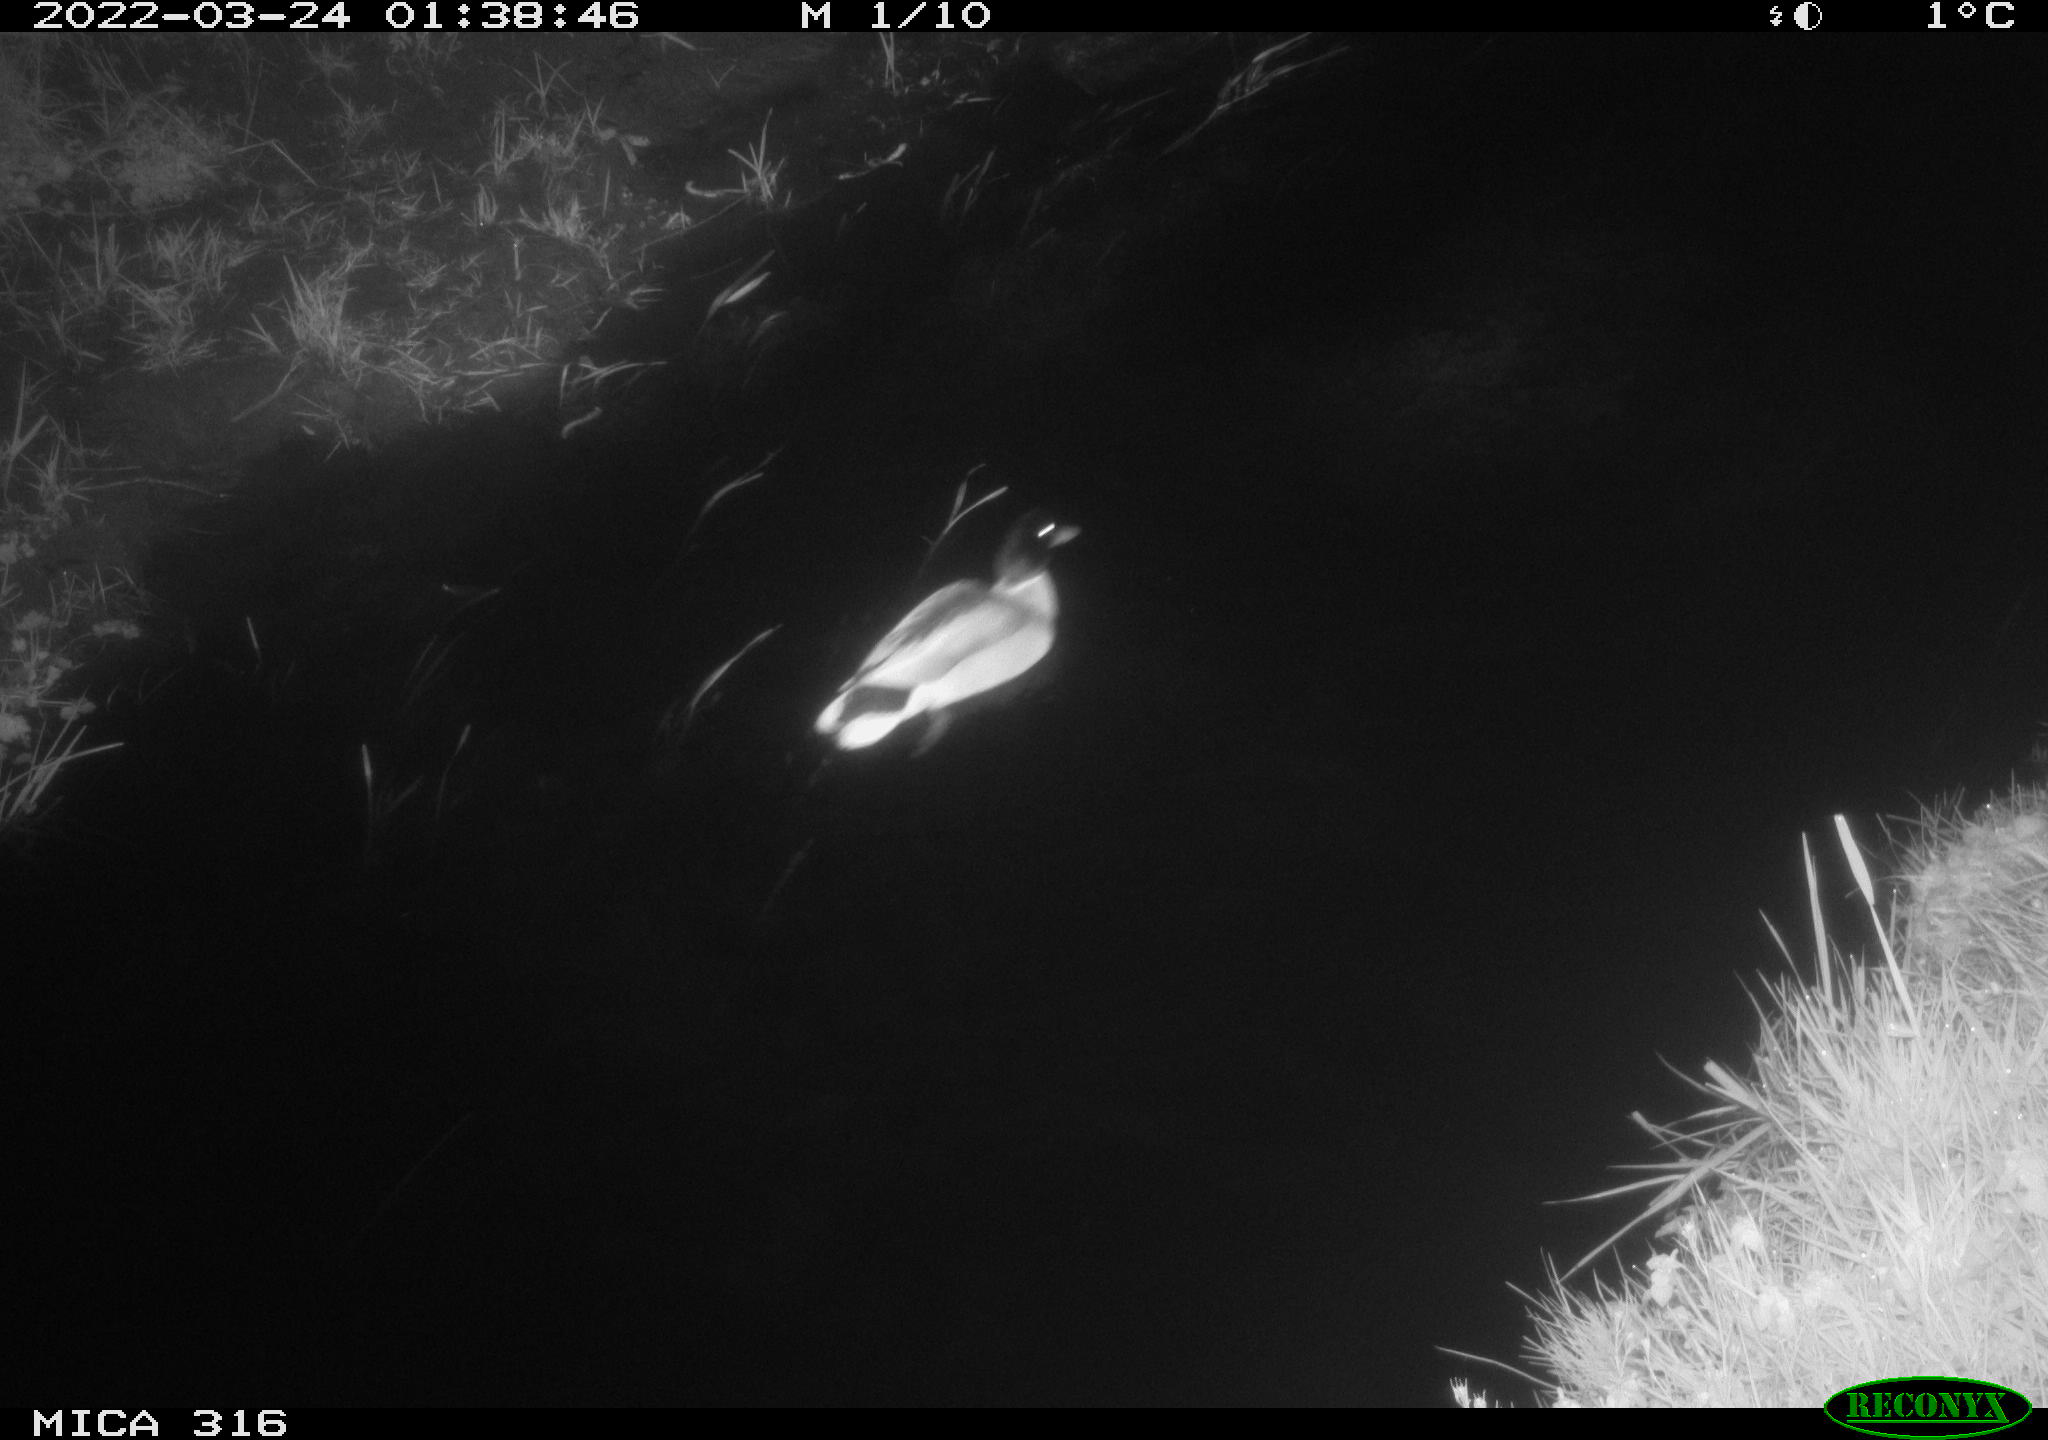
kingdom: Animalia
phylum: Chordata
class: Aves
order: Anseriformes
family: Anatidae
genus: Anas
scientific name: Anas platyrhynchos
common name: Mallard
